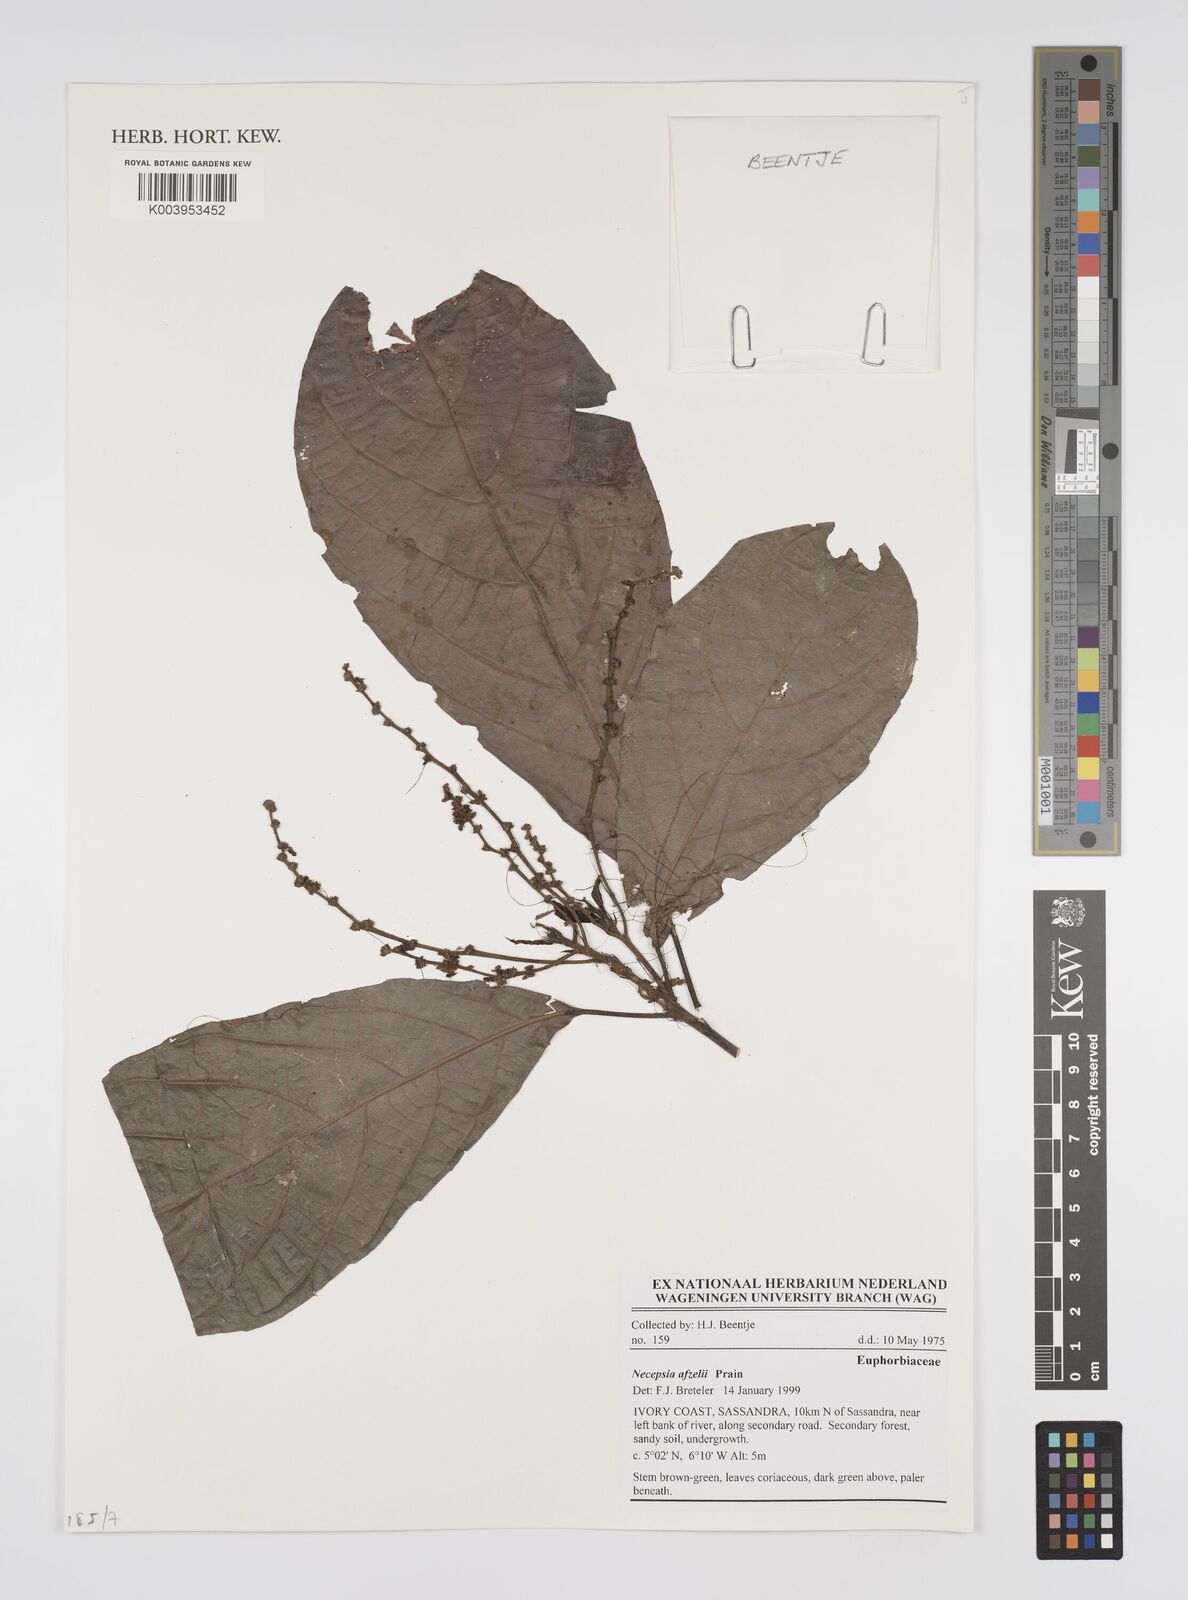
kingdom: Plantae
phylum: Tracheophyta
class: Magnoliopsida
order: Malpighiales
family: Euphorbiaceae
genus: Necepsia
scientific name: Necepsia afzelii
